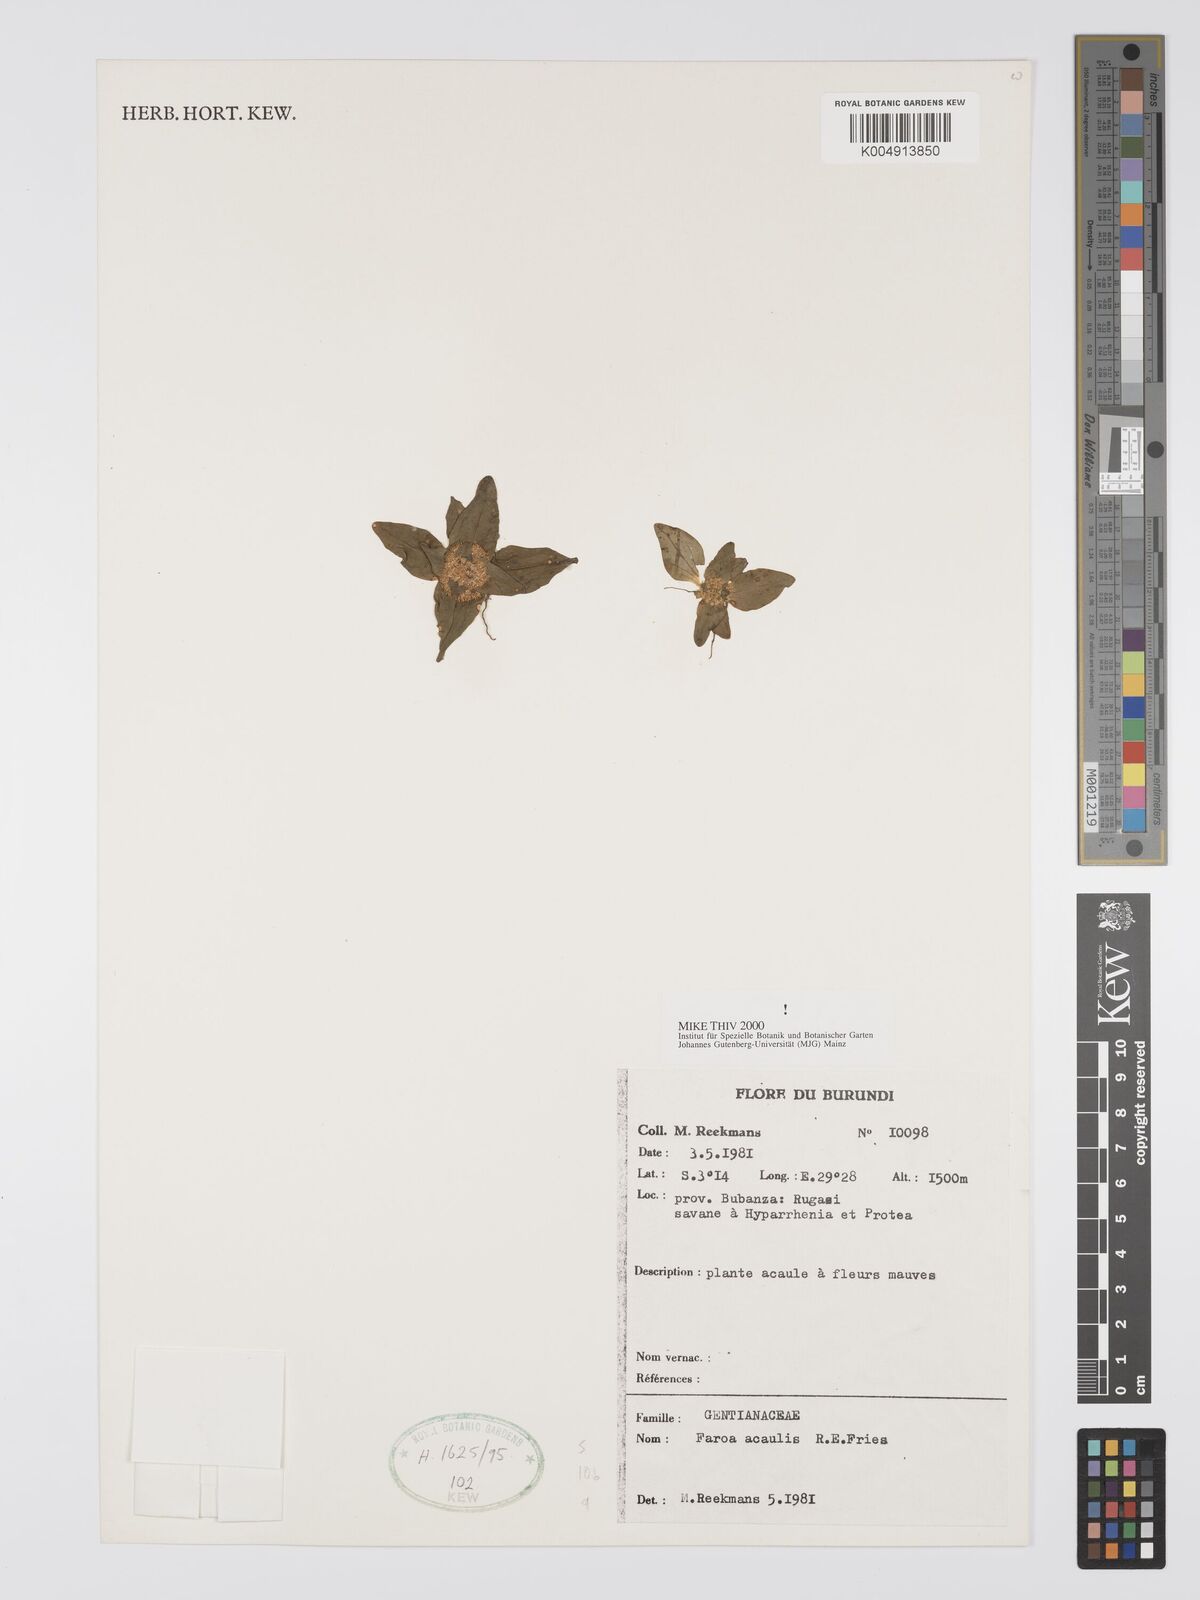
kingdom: Plantae
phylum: Tracheophyta
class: Magnoliopsida
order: Gentianales
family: Gentianaceae
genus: Faroa
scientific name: Faroa acaulis
